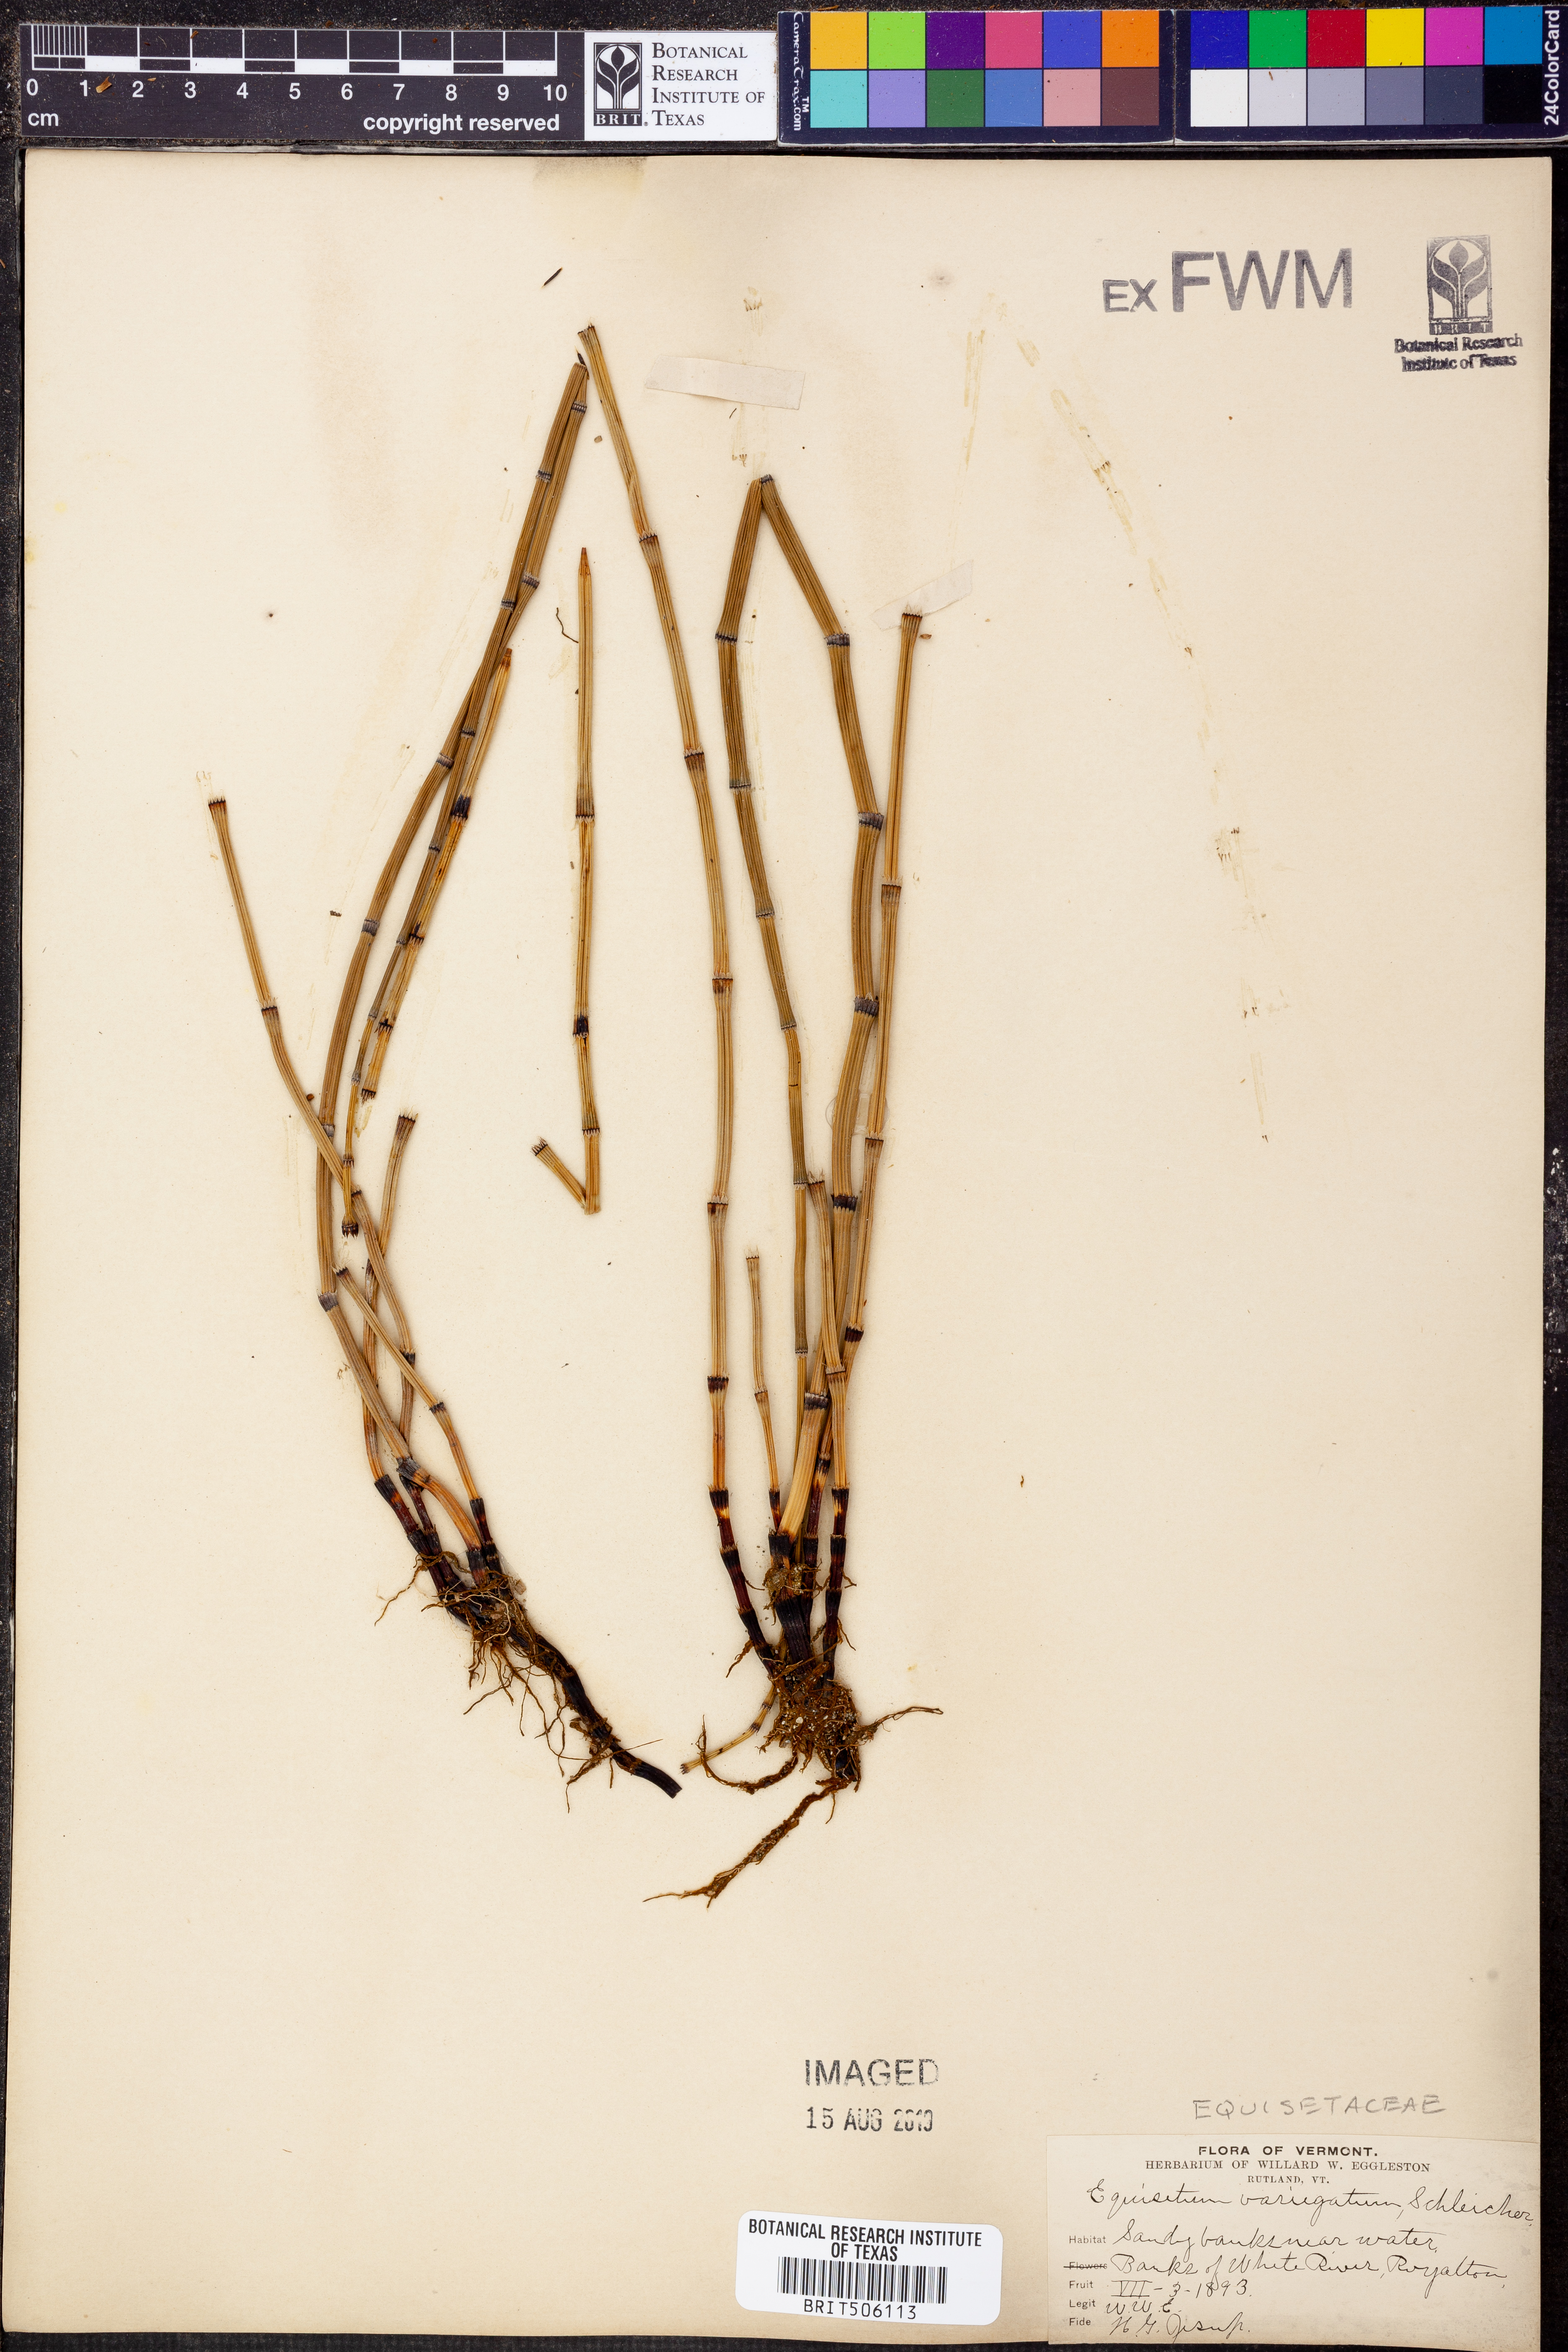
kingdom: Plantae
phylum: Tracheophyta
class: Polypodiopsida
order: Equisetales
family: Equisetaceae
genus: Equisetum
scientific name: Equisetum variegatum
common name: Variegated horsetail
